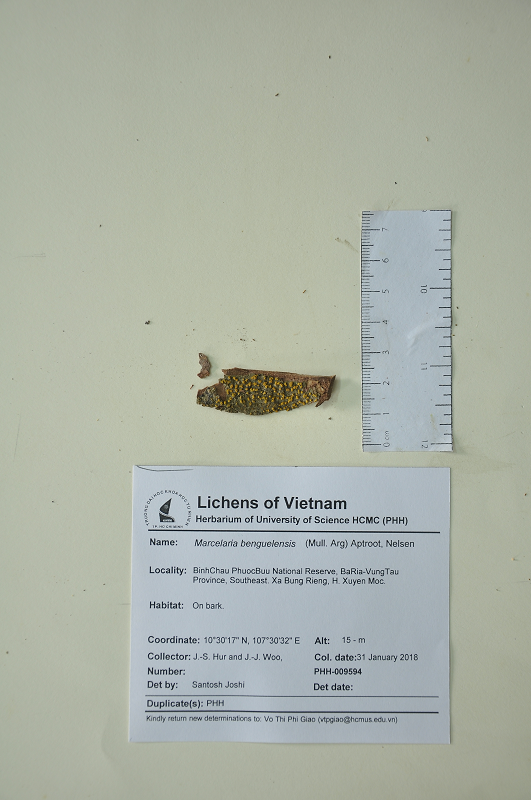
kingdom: Fungi
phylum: Ascomycota
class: Dothideomycetes
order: Trypetheliales
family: Trypetheliaceae
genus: Marcelaria
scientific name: Marcelaria benguelensis
